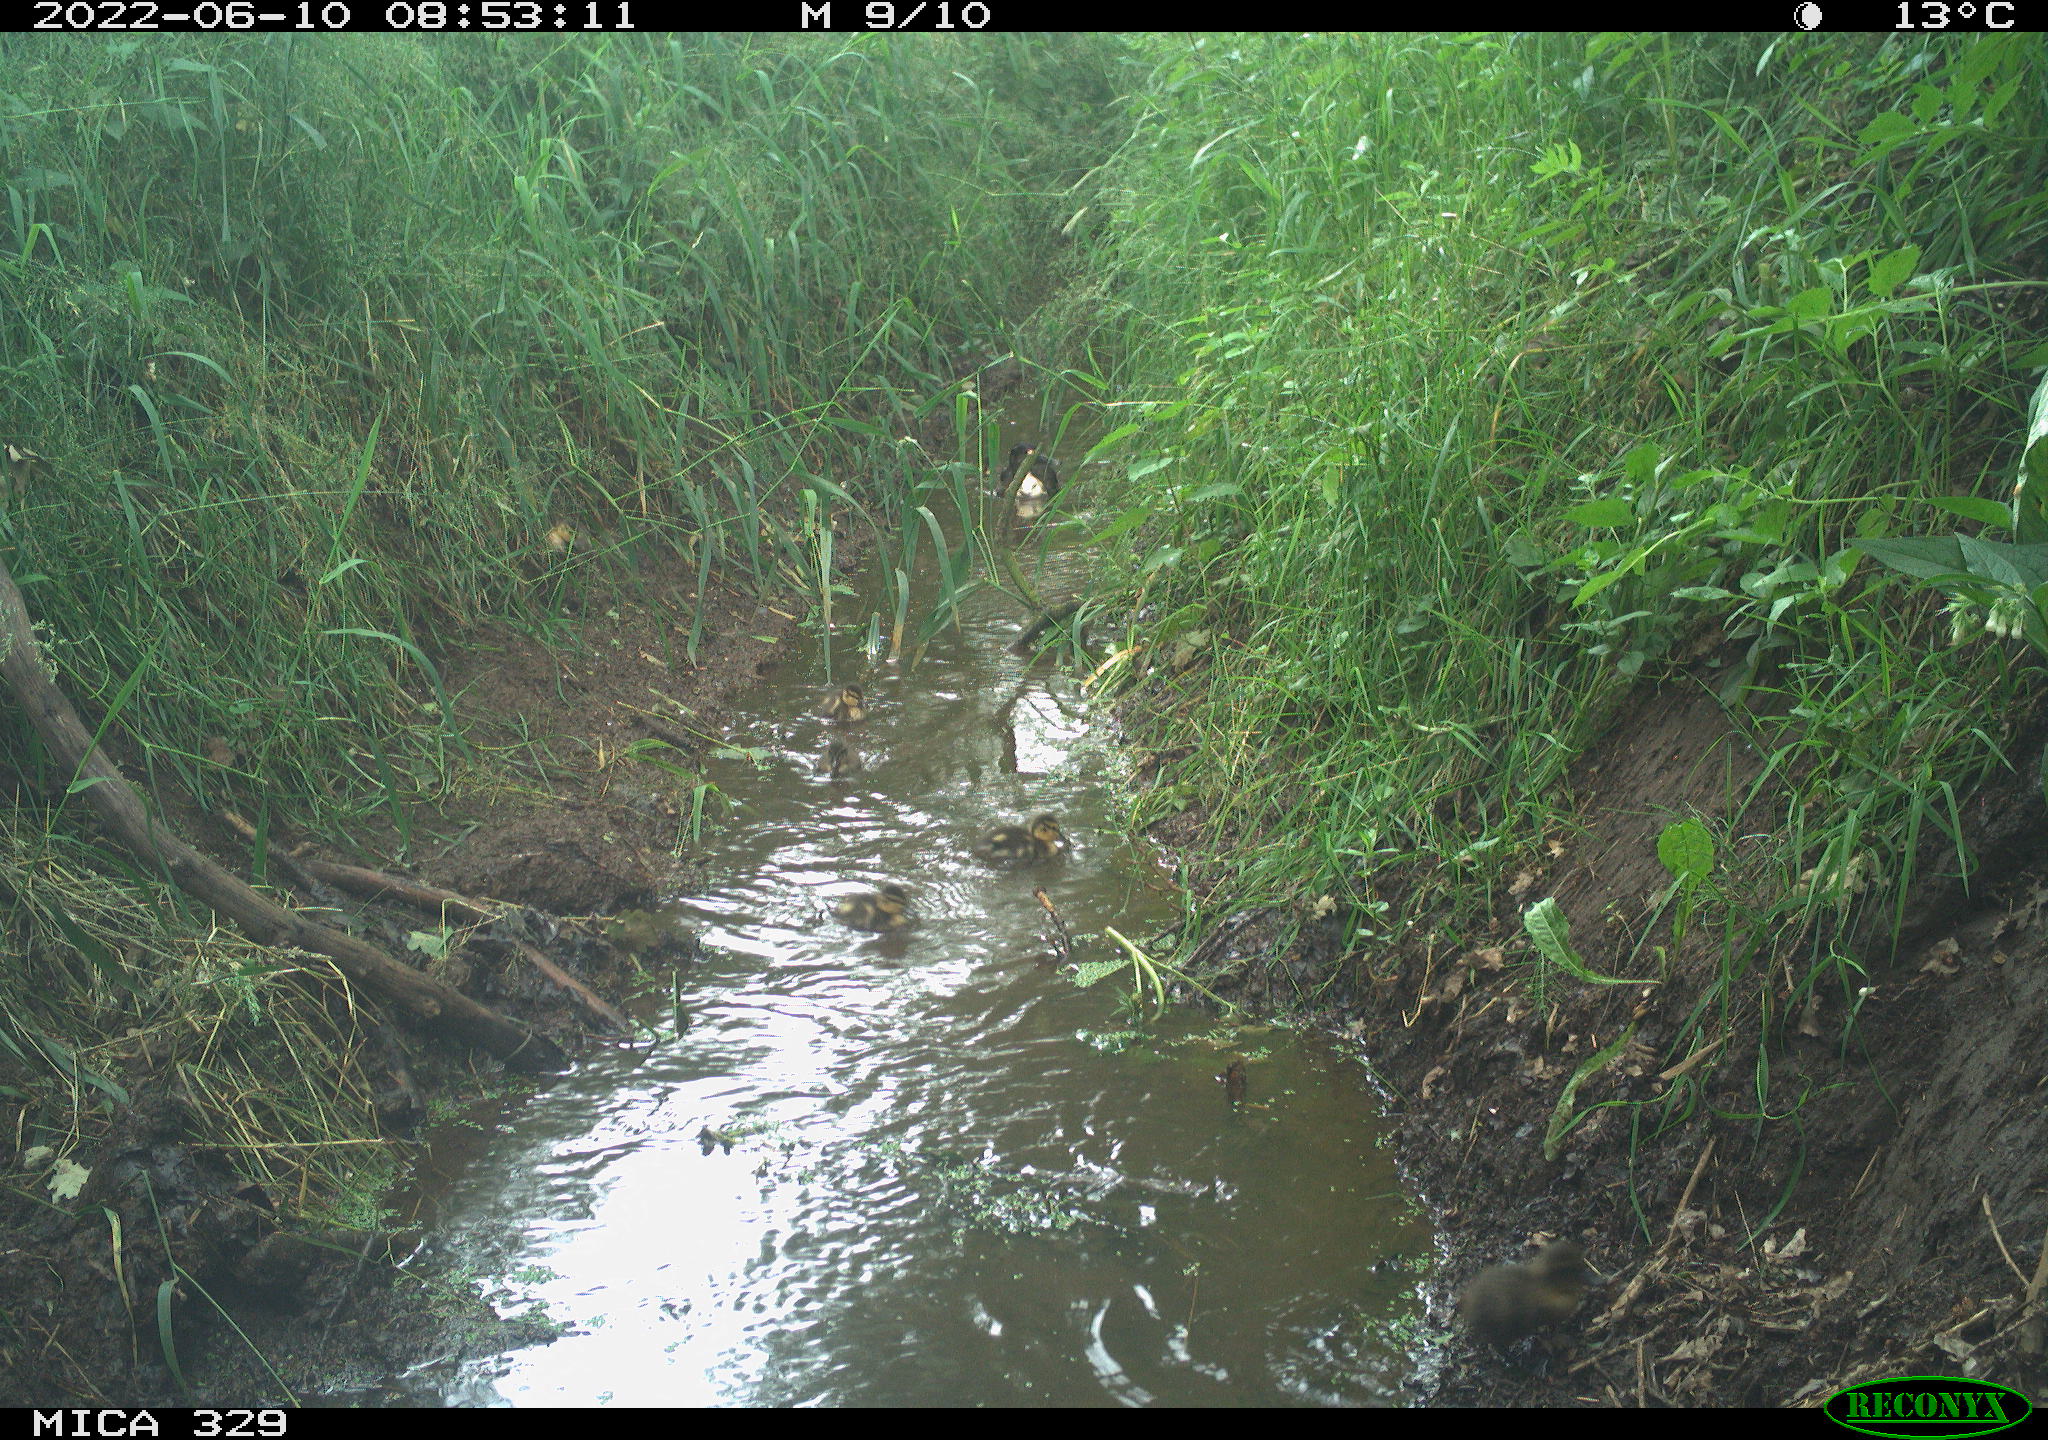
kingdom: Animalia
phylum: Chordata
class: Aves
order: Anseriformes
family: Anatidae
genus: Anas
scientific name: Anas
